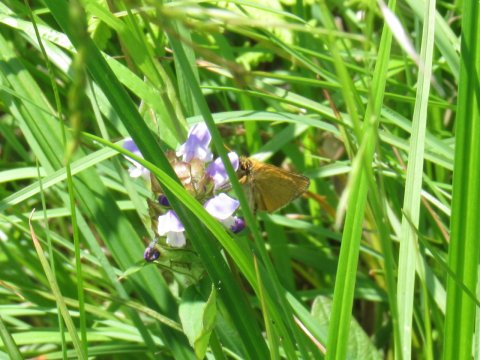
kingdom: Animalia
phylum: Arthropoda
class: Insecta
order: Lepidoptera
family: Hesperiidae
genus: Thymelicus
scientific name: Thymelicus lineola
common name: European Skipper
